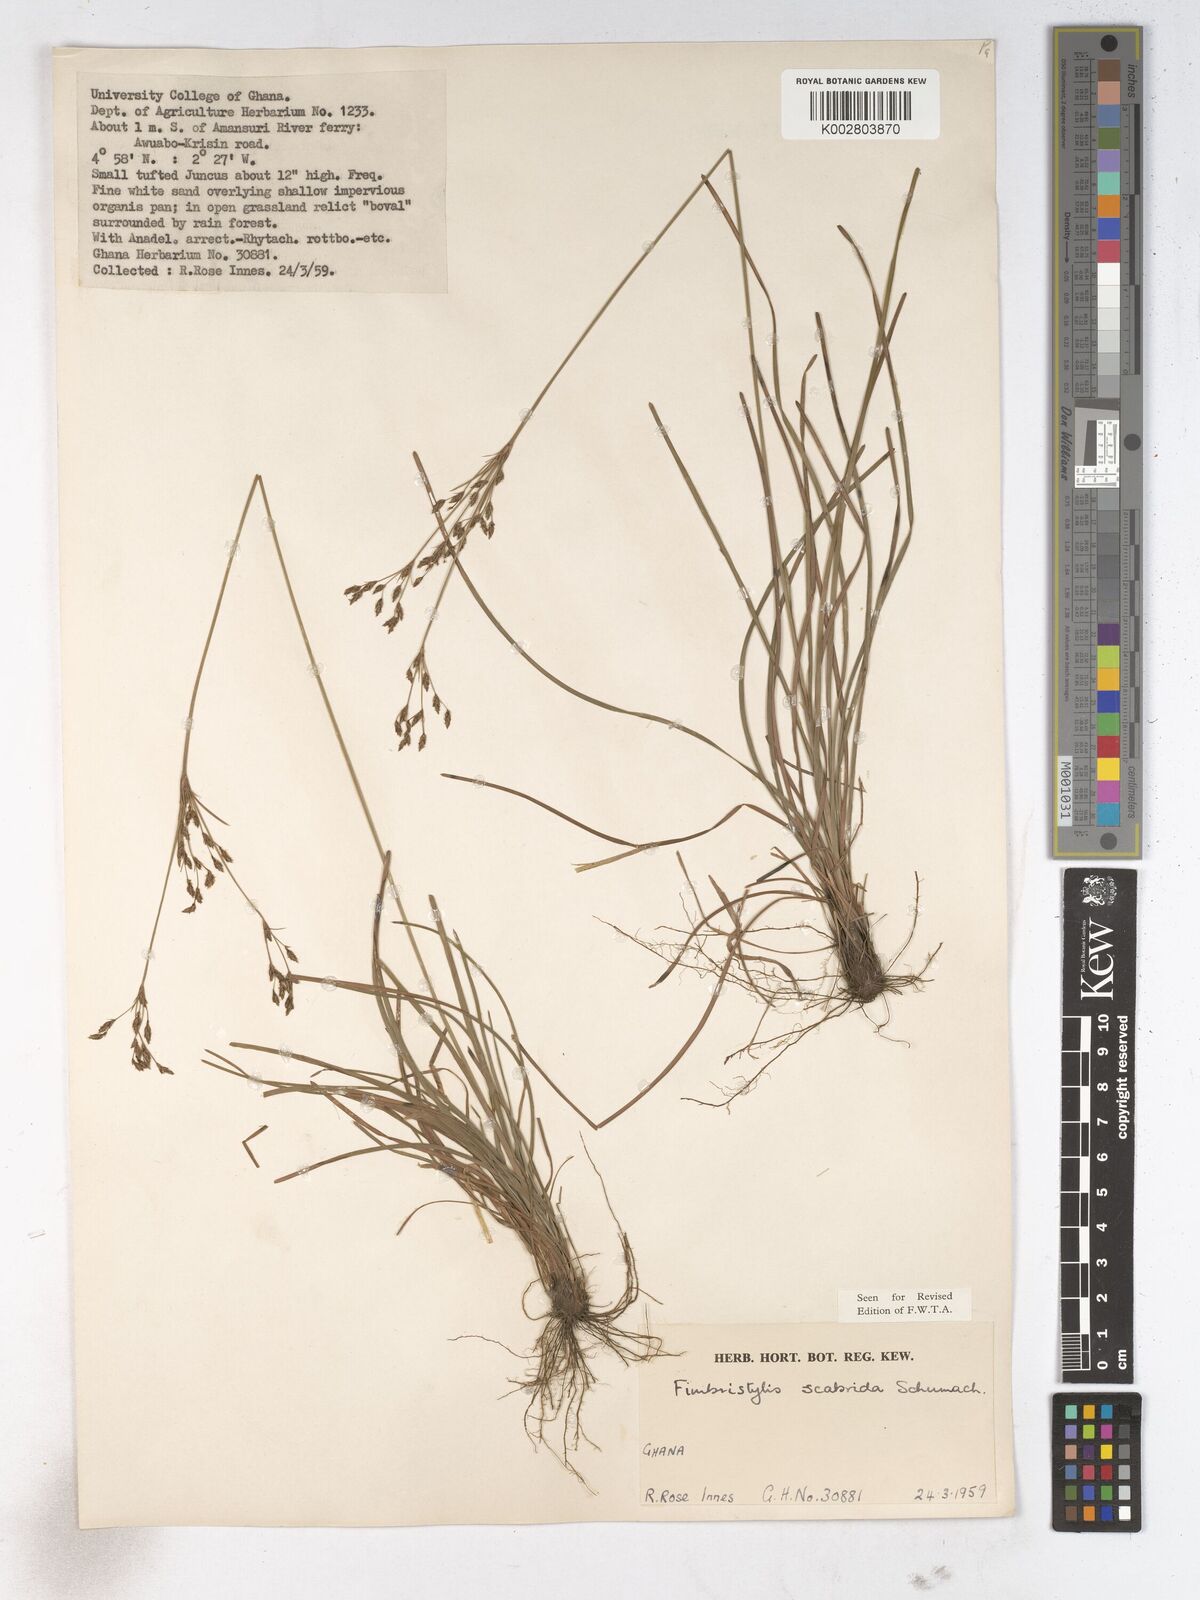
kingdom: Plantae
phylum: Tracheophyta
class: Liliopsida
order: Poales
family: Cyperaceae
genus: Fimbristylis
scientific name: Fimbristylis scabrida
